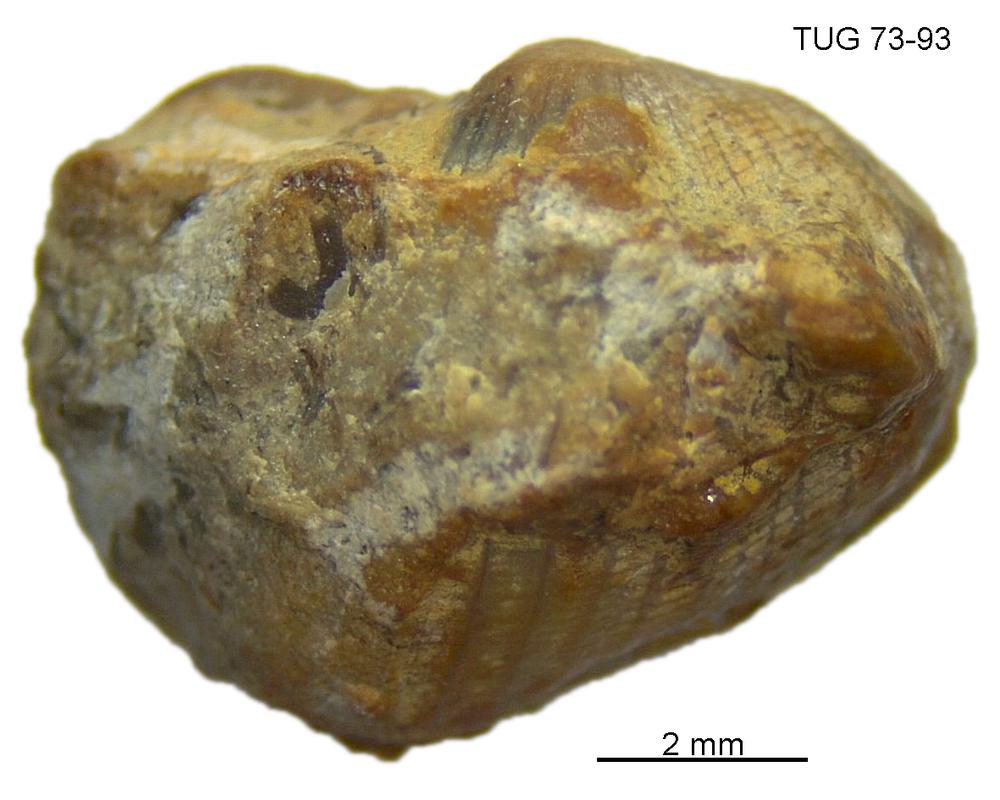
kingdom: Animalia
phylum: Mollusca
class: Rostroconchia
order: Conocardiida
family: Bransoniidae
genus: Mulceodens
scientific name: Mulceodens jaanussoni
